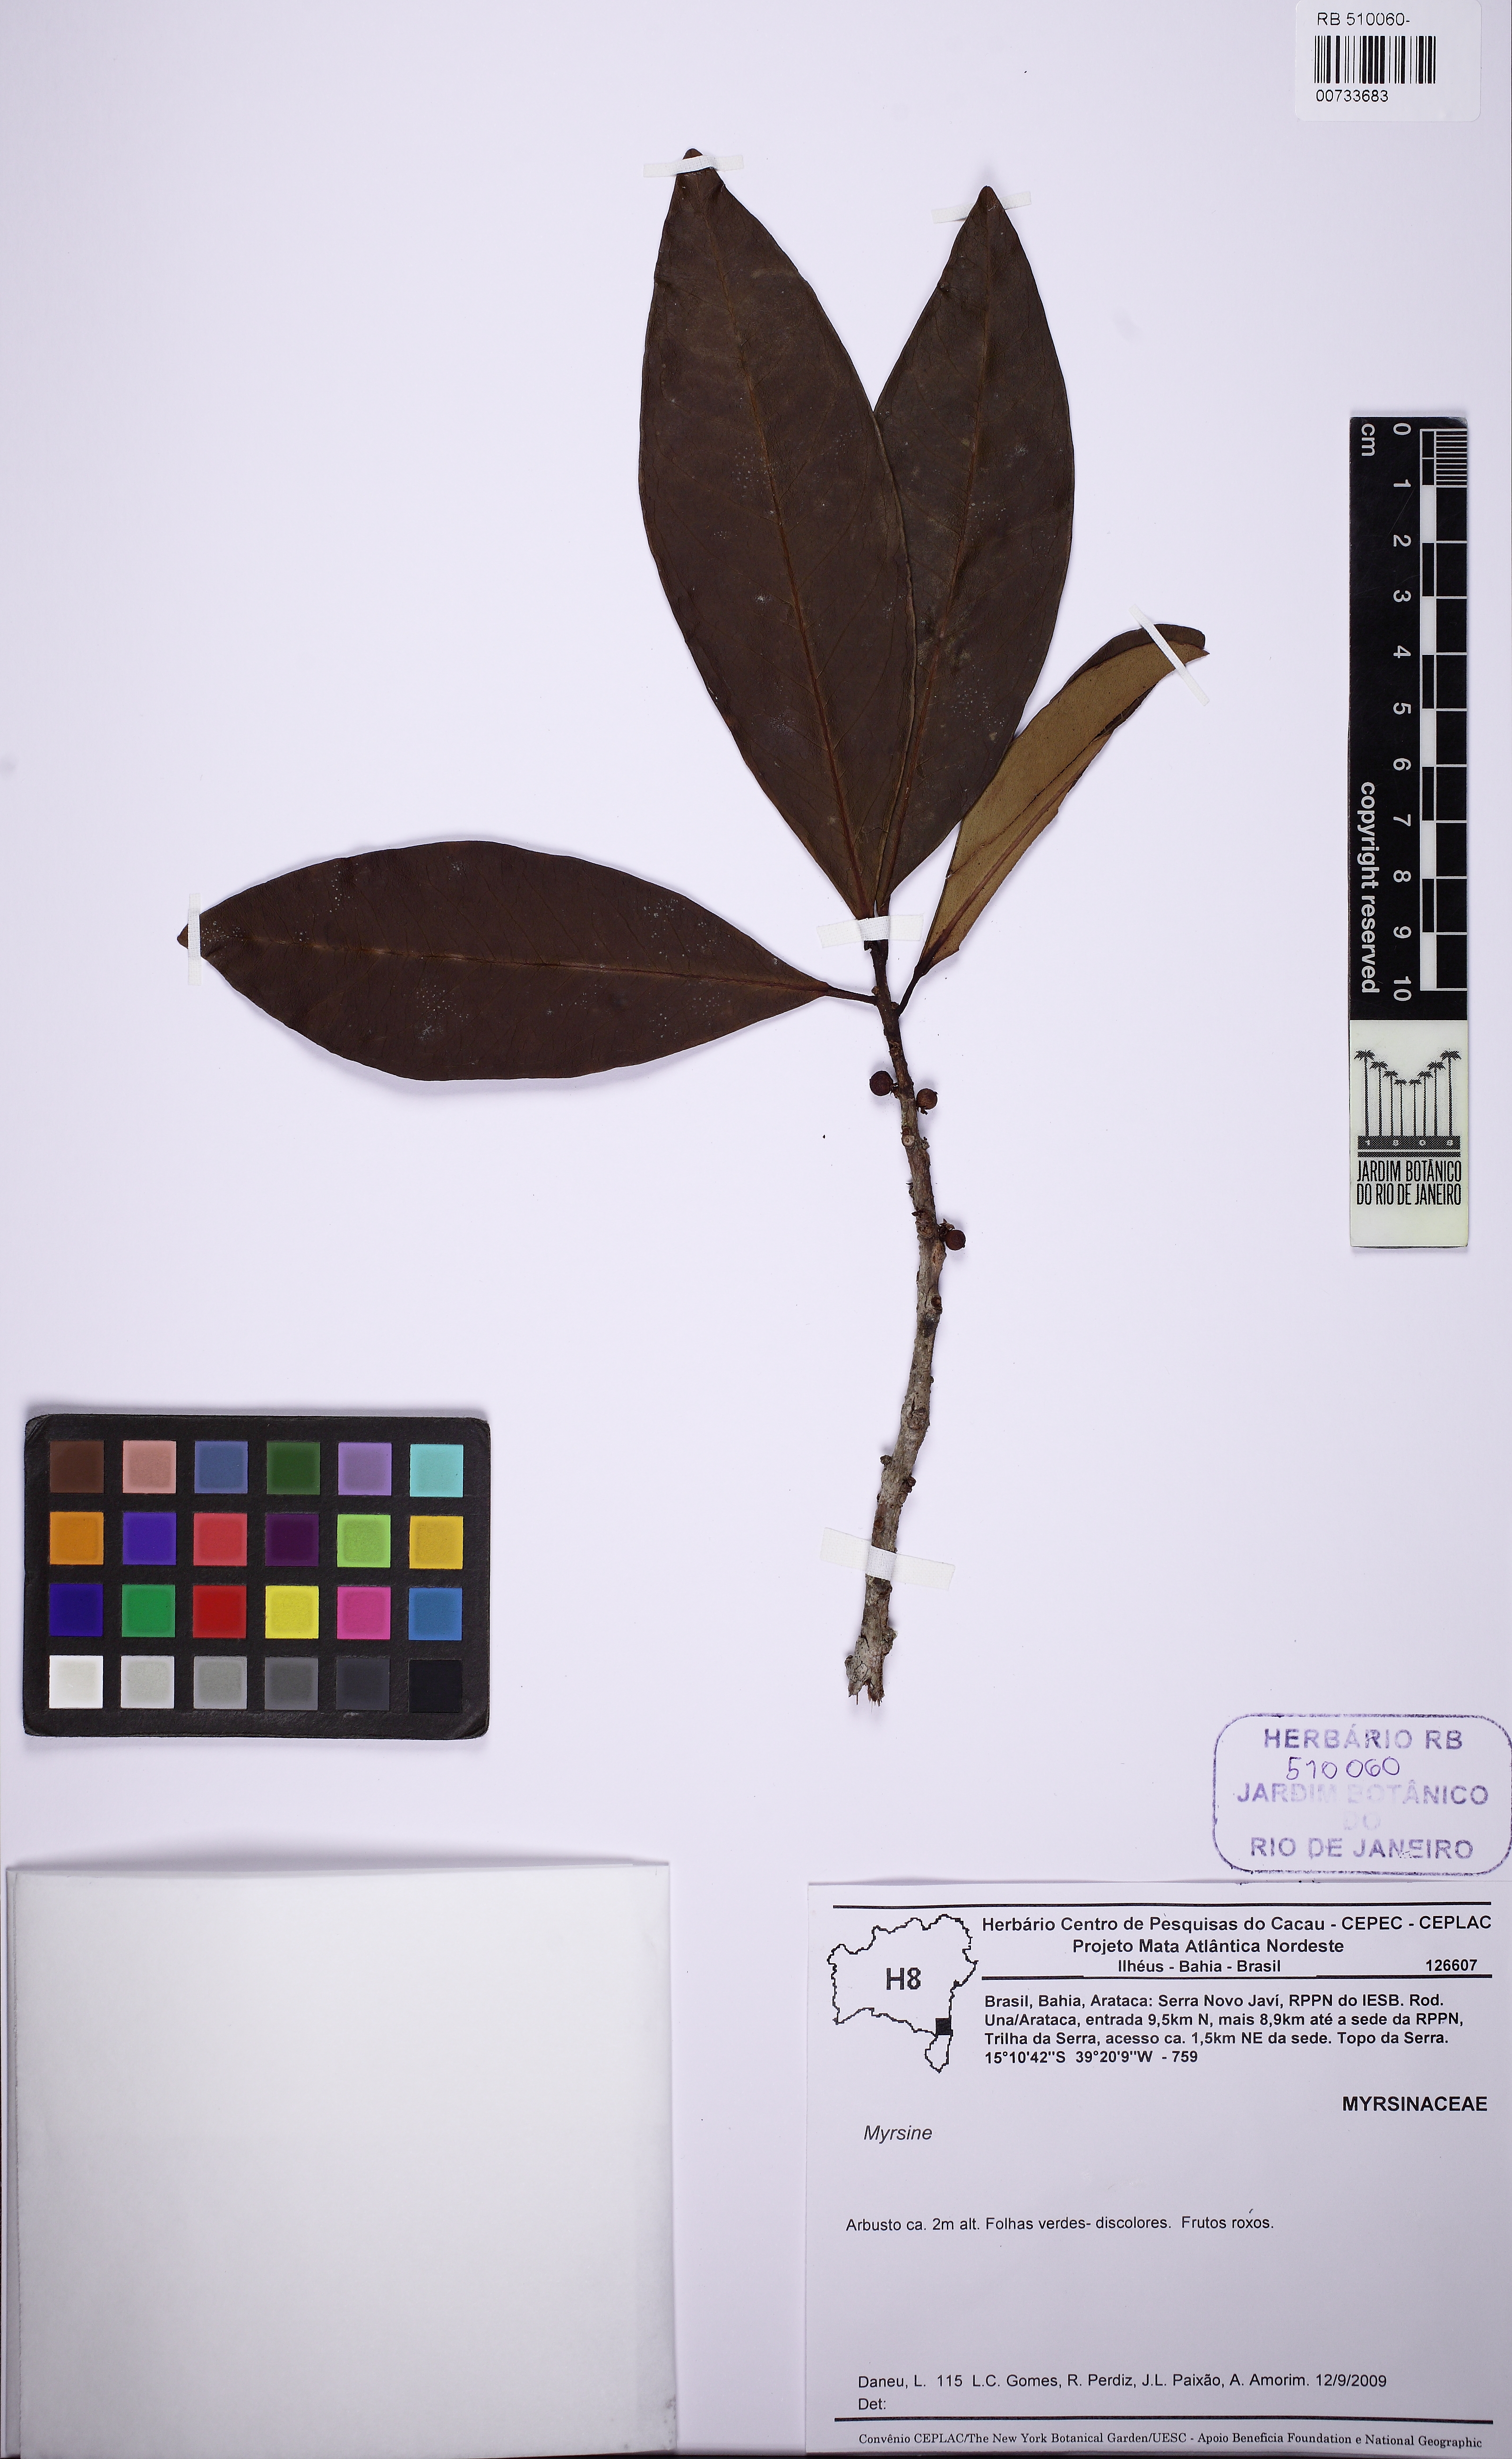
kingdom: Plantae
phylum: Tracheophyta
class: Magnoliopsida
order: Ericales
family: Primulaceae
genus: Myrsine
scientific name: Myrsine
